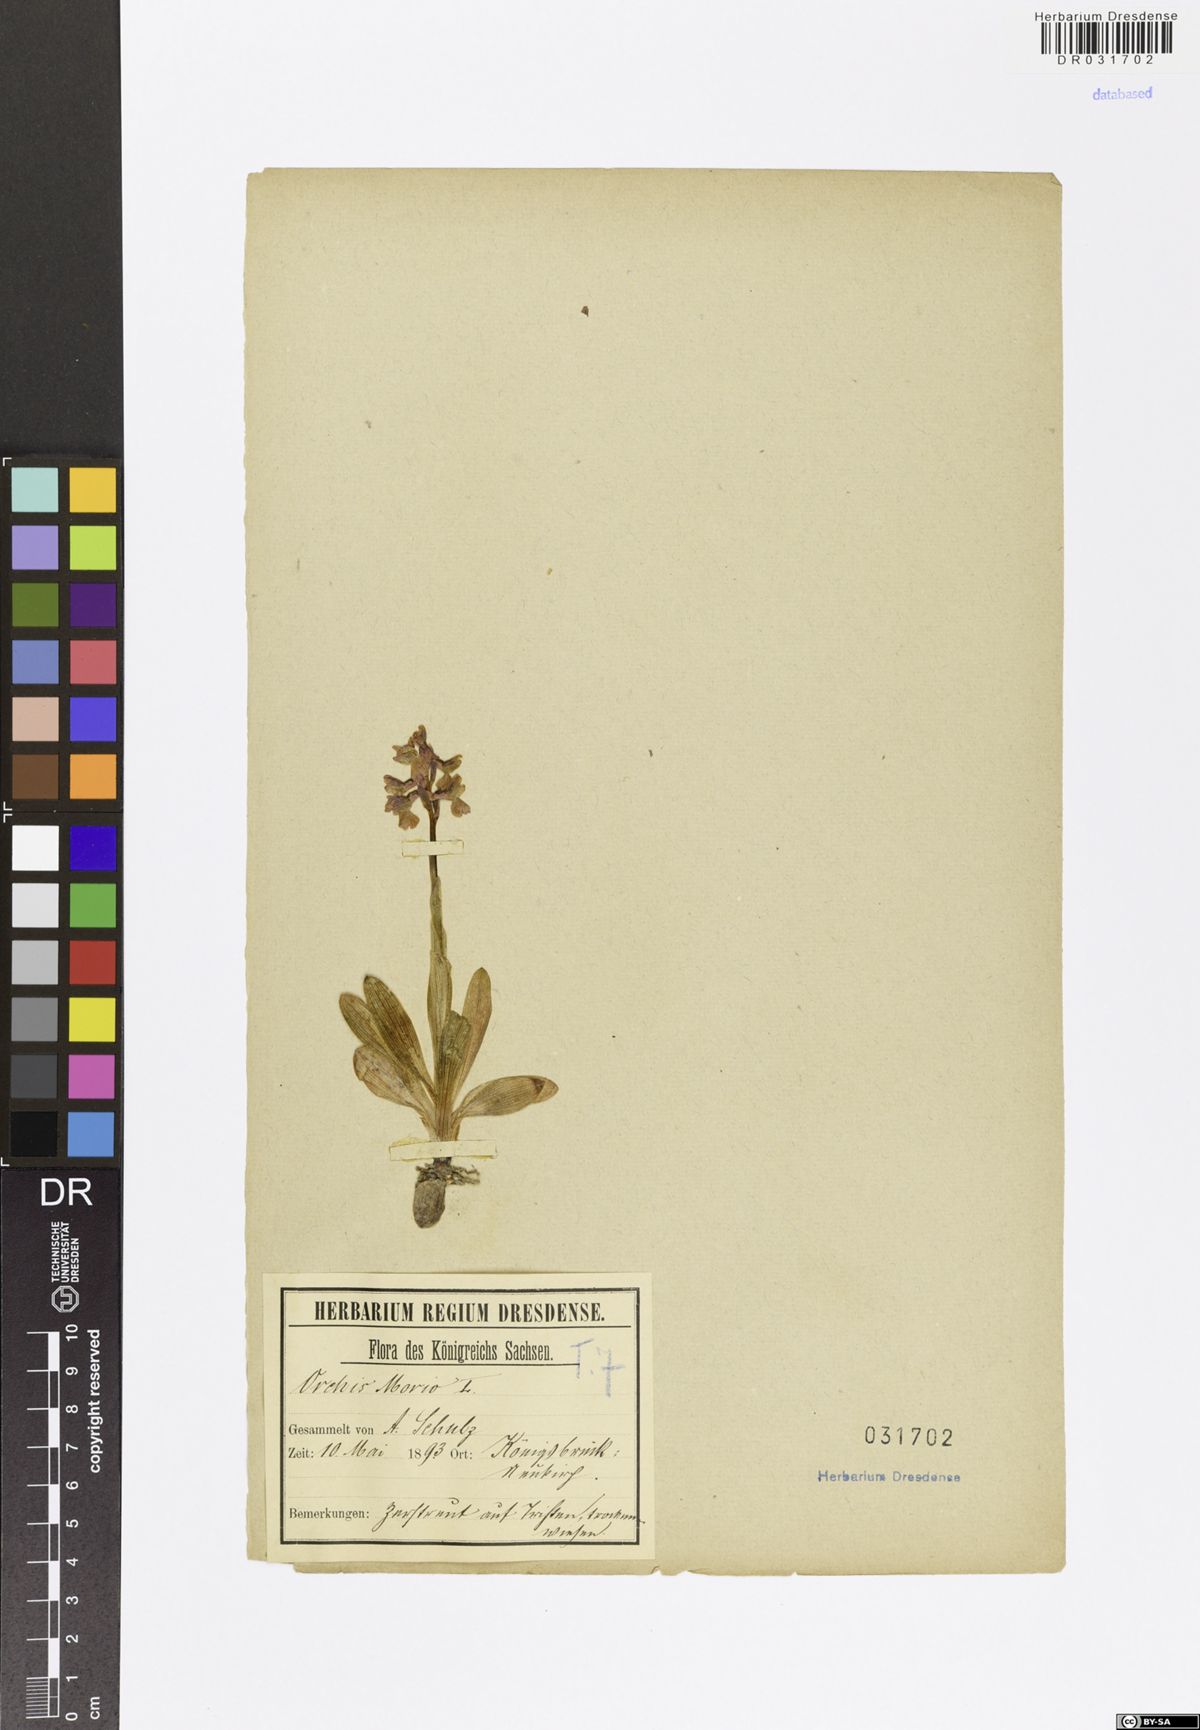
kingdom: Plantae
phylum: Tracheophyta
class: Liliopsida
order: Asparagales
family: Orchidaceae
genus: Anacamptis
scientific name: Anacamptis morio
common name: Green-winged orchid
